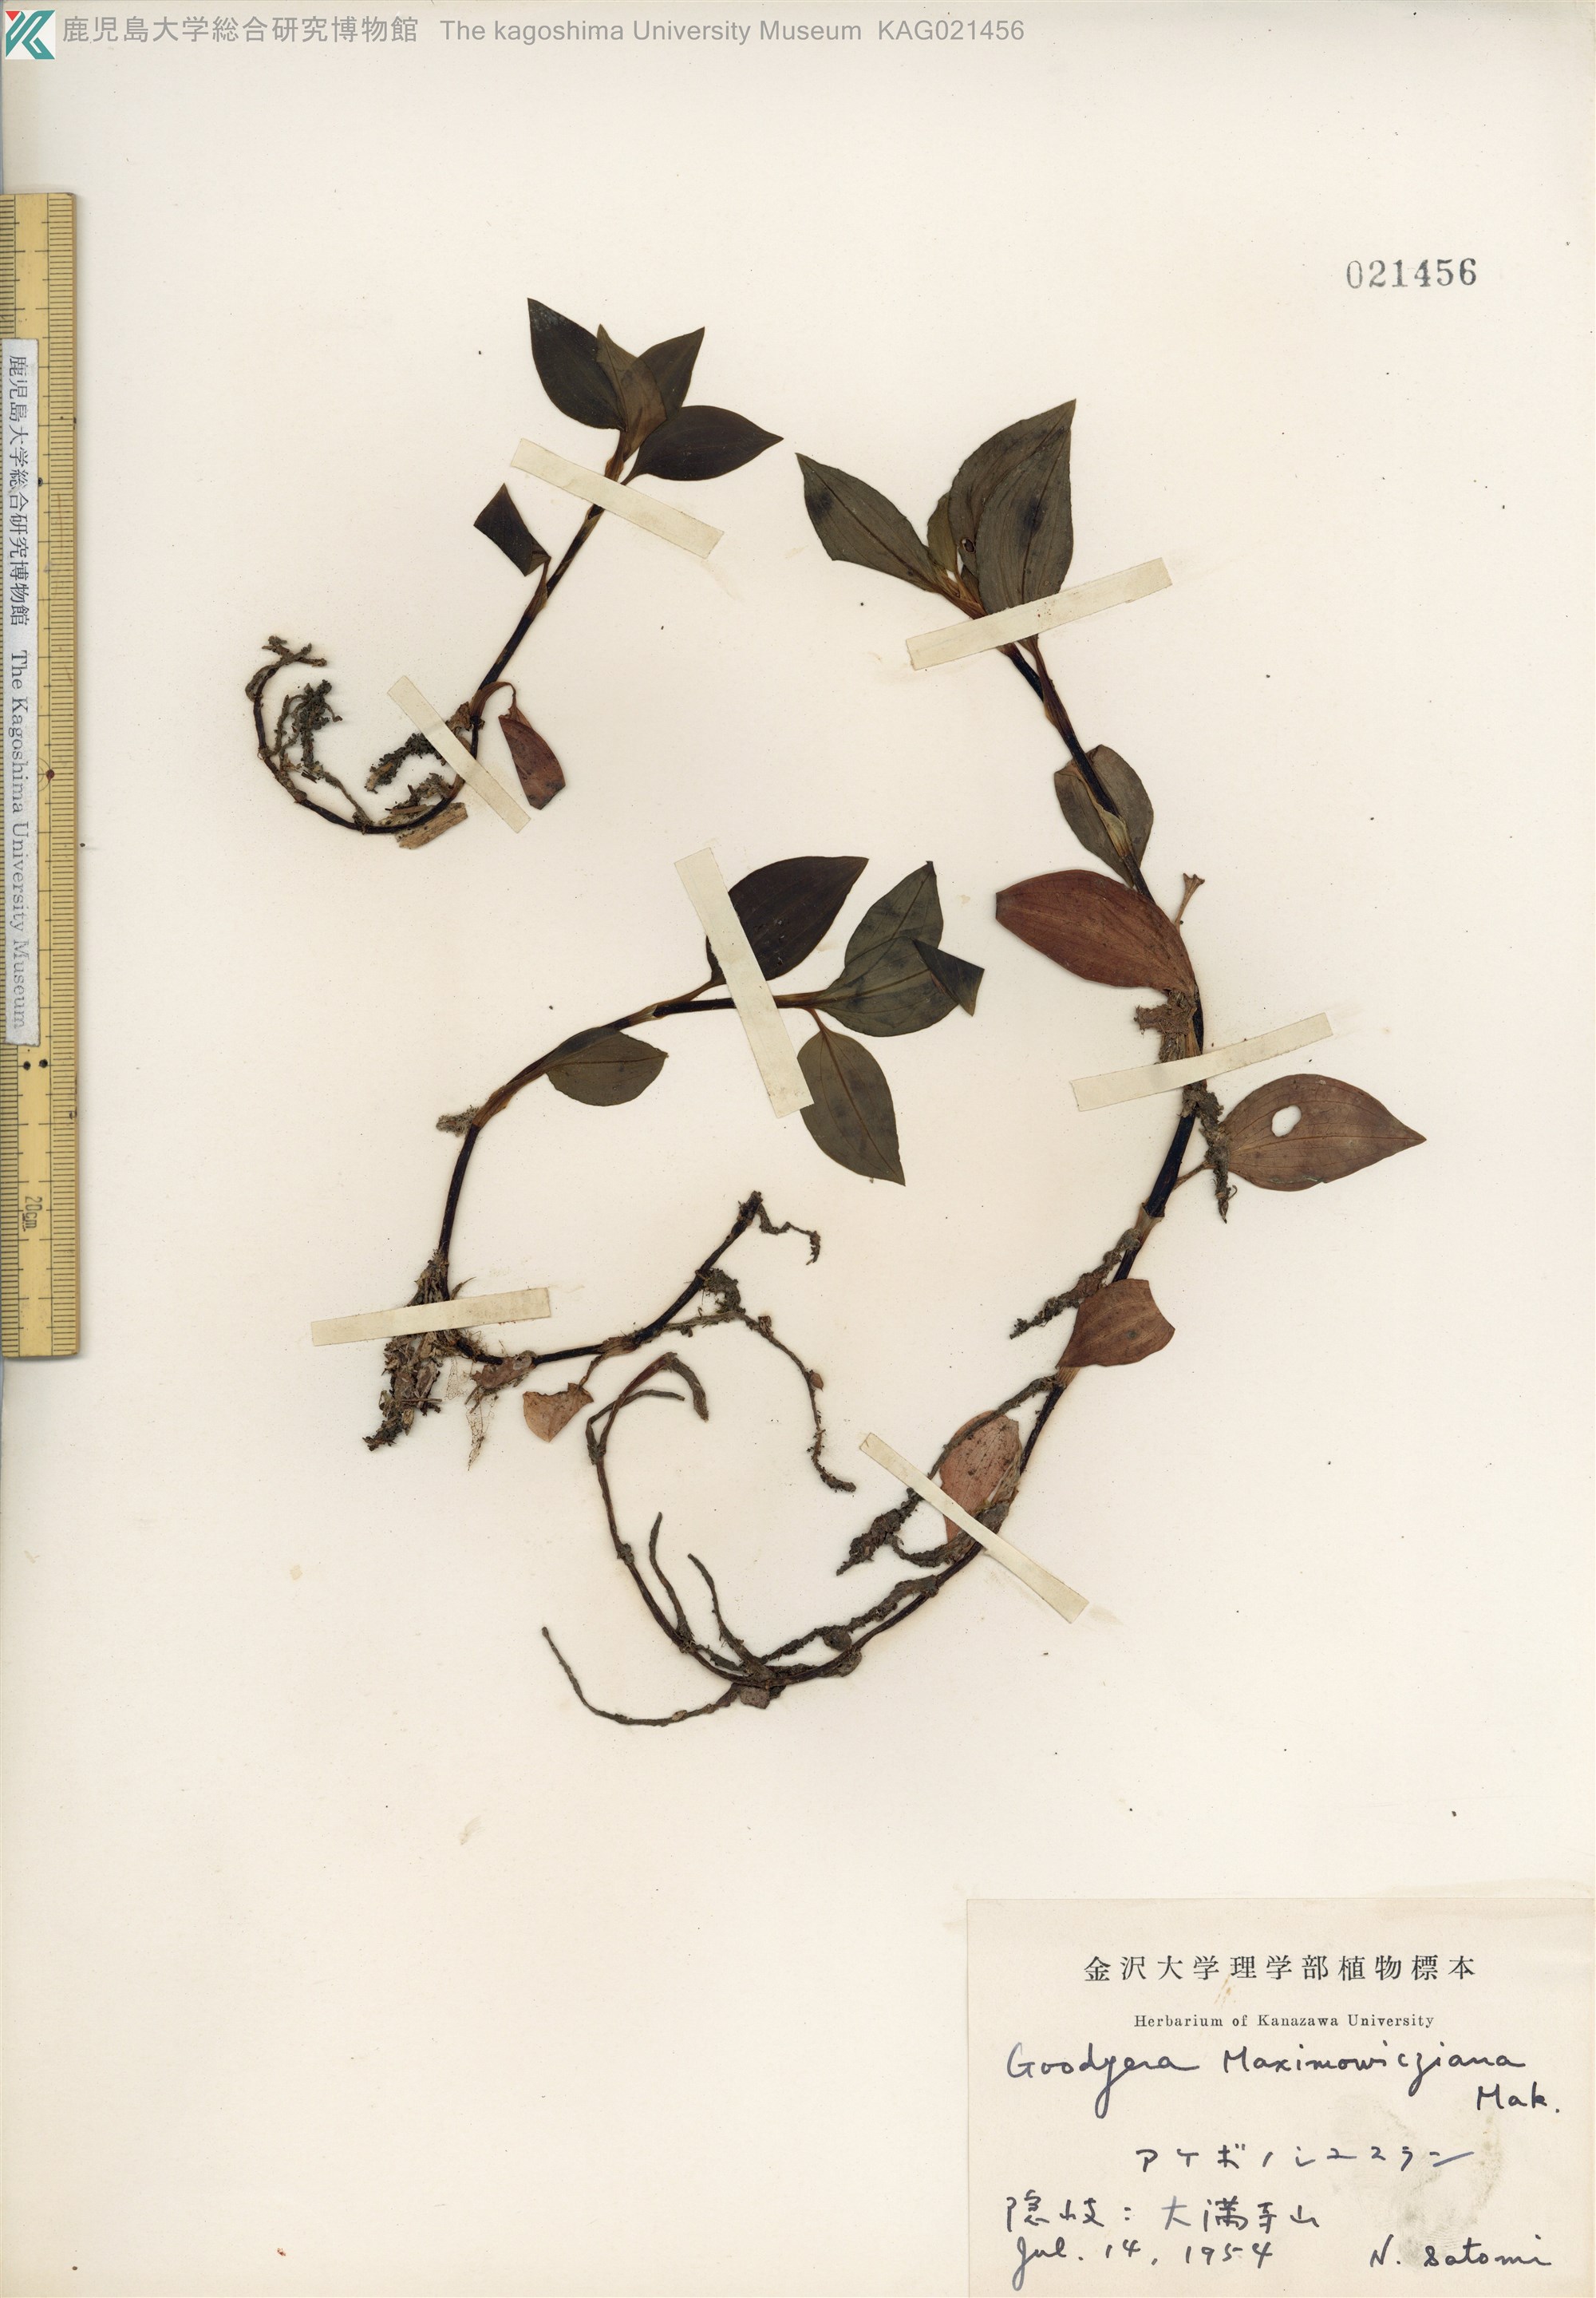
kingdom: Plantae
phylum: Tracheophyta
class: Liliopsida
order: Asparagales
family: Orchidaceae
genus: Goodyera
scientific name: Goodyera henryi
